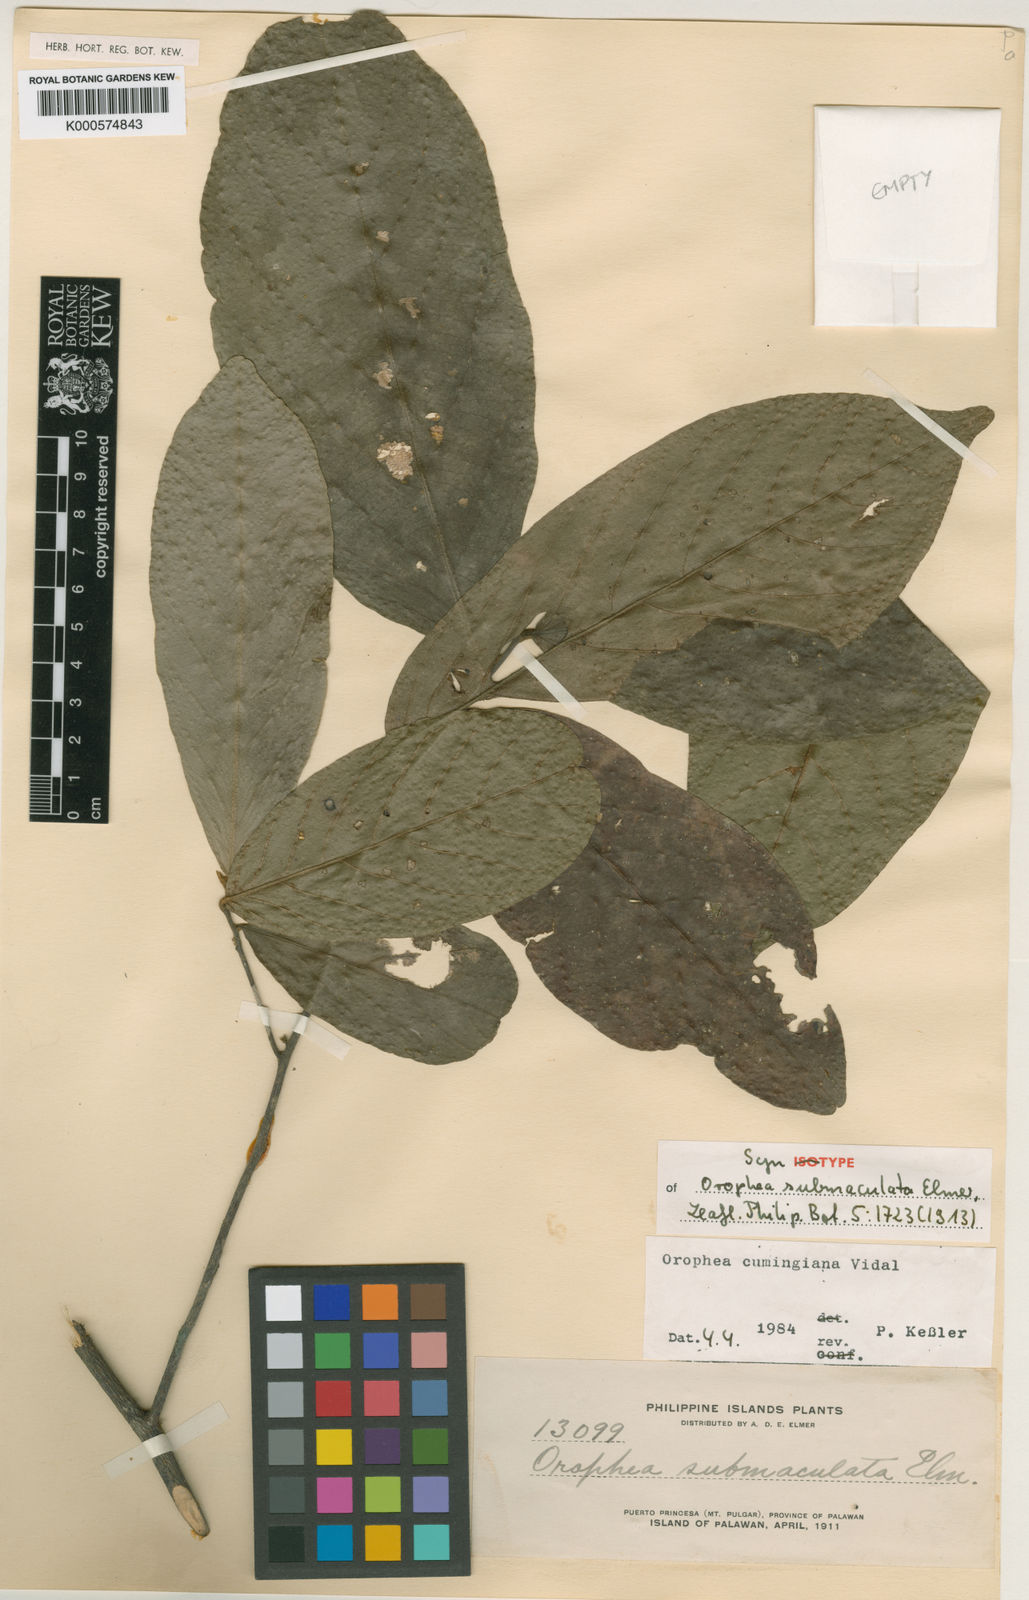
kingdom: Plantae
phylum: Tracheophyta
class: Magnoliopsida
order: Magnoliales
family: Annonaceae
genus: Orophea
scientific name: Orophea cumingiana
